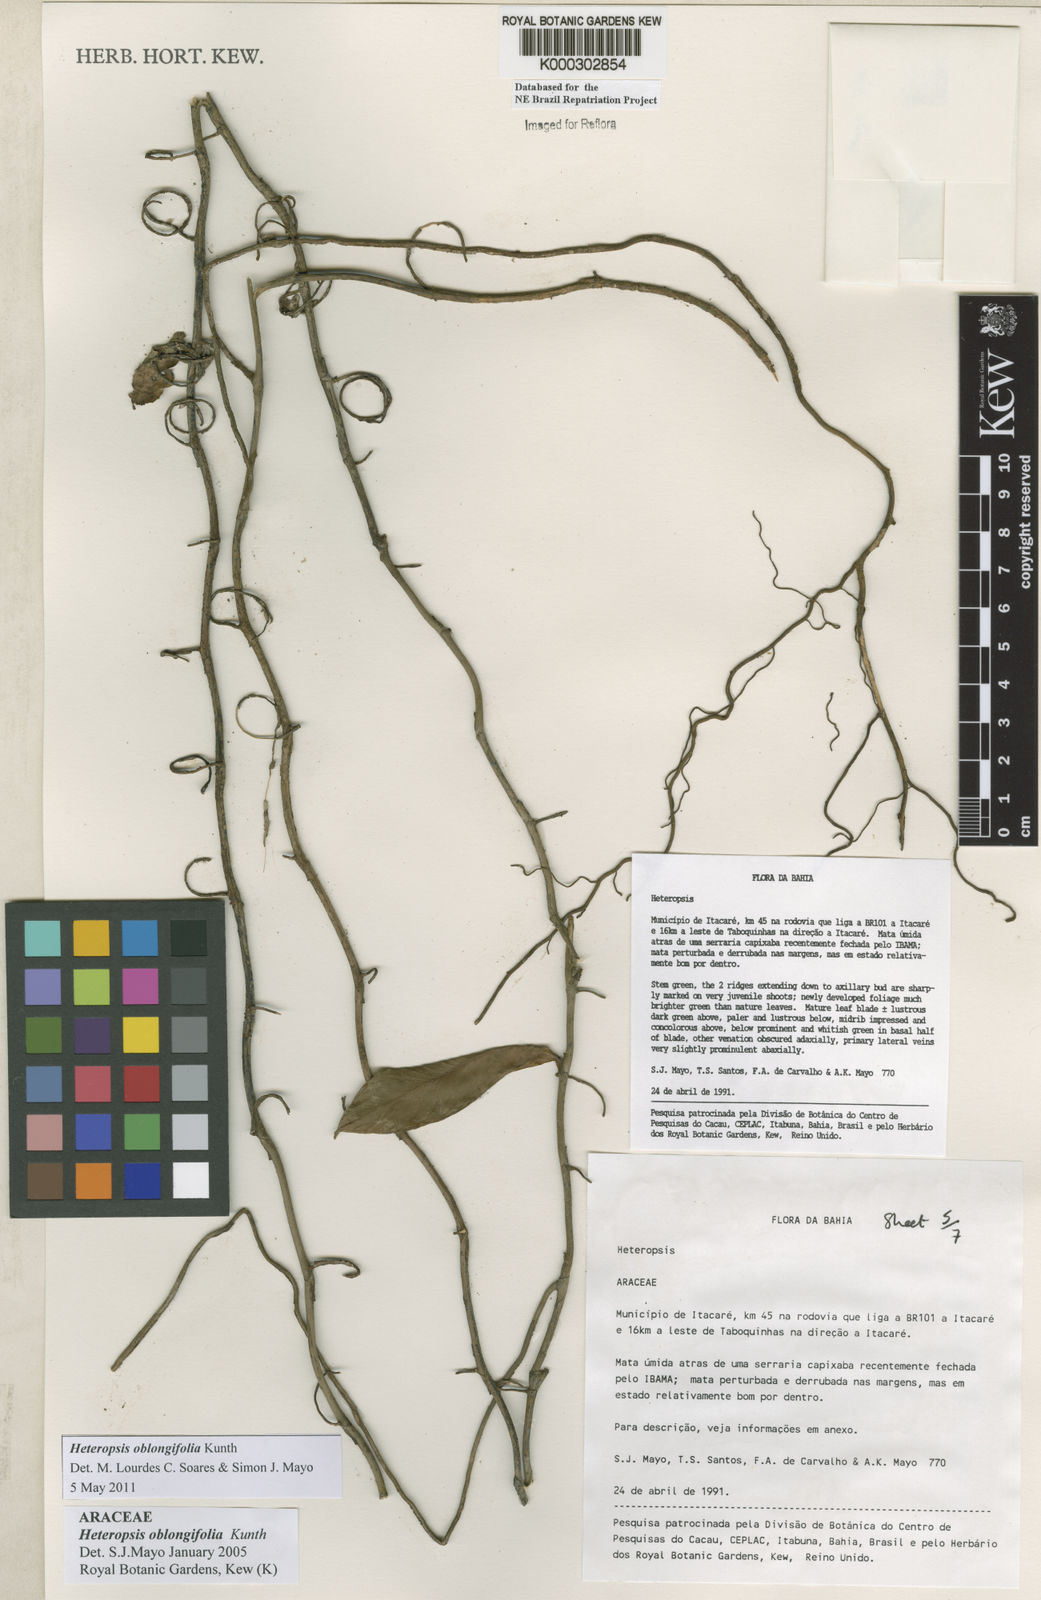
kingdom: Plantae
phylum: Tracheophyta
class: Liliopsida
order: Alismatales
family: Araceae
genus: Heteropsis
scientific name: Heteropsis oblongifolia
